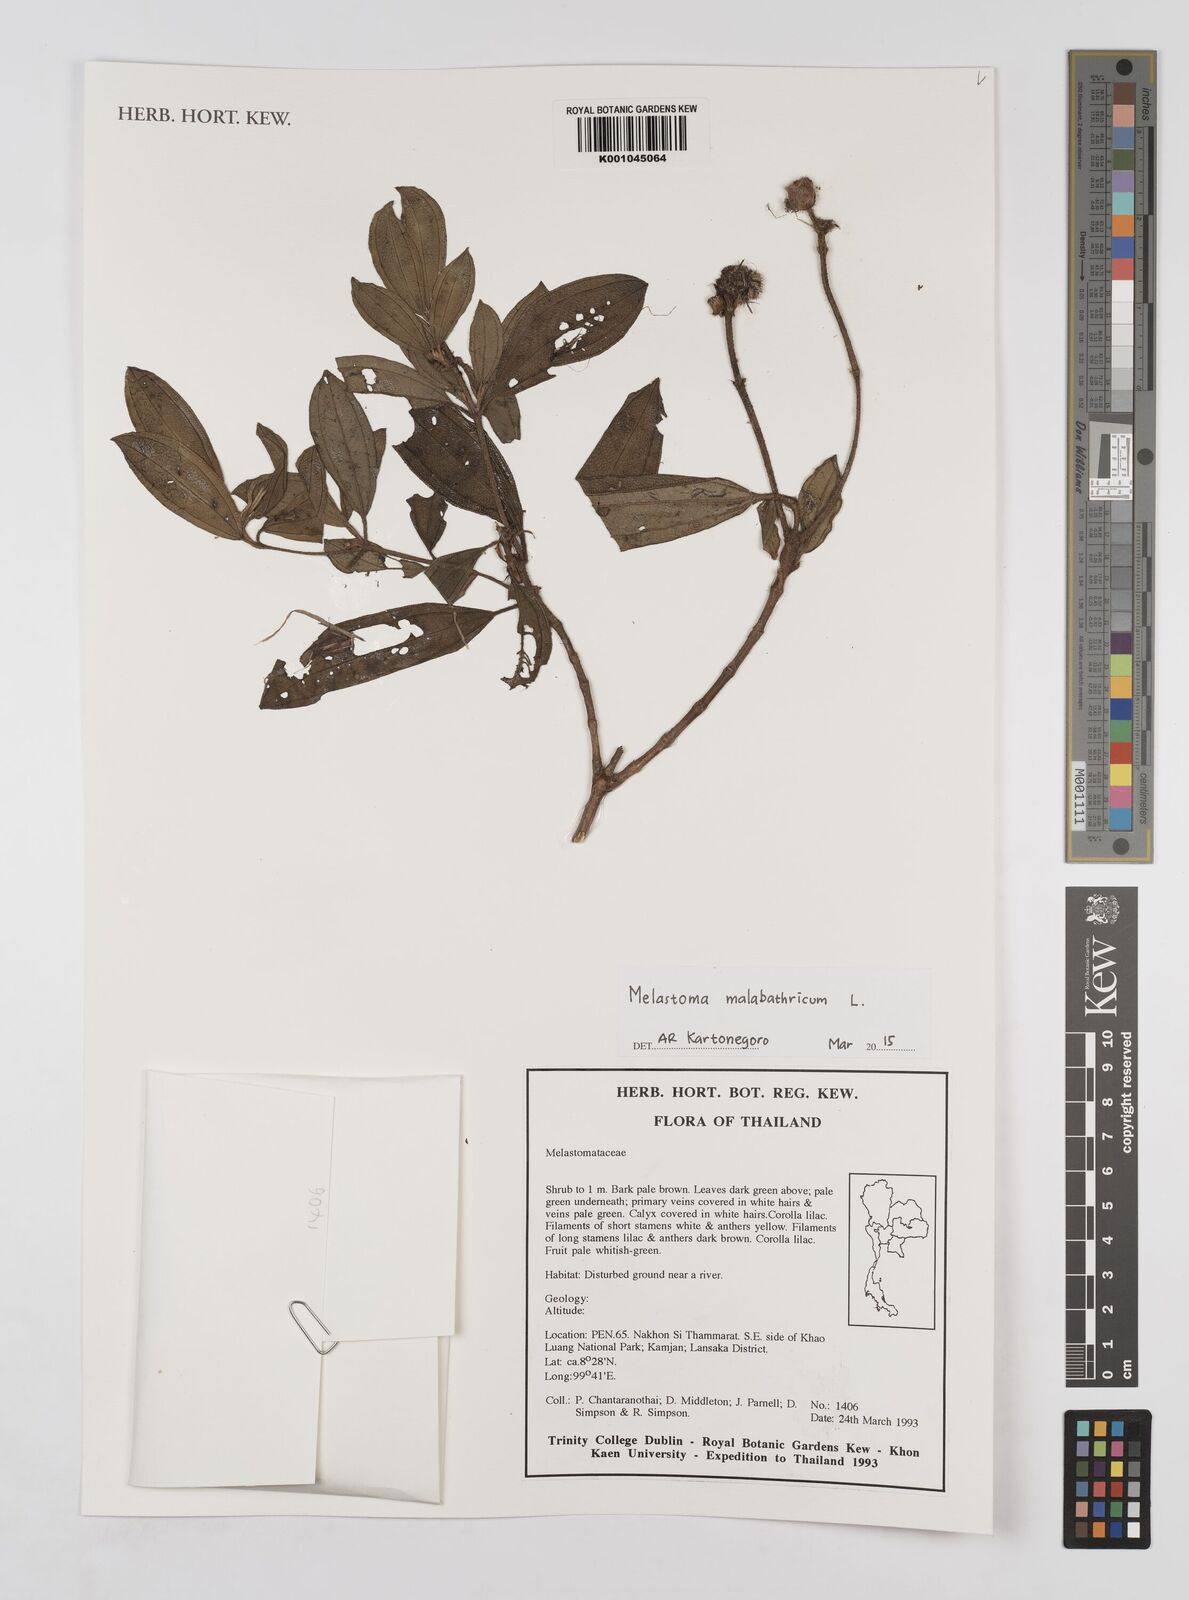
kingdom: Plantae
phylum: Tracheophyta
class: Magnoliopsida
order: Myrtales
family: Melastomataceae
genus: Melastoma
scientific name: Melastoma malabathricum
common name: Indian-rhododendron
